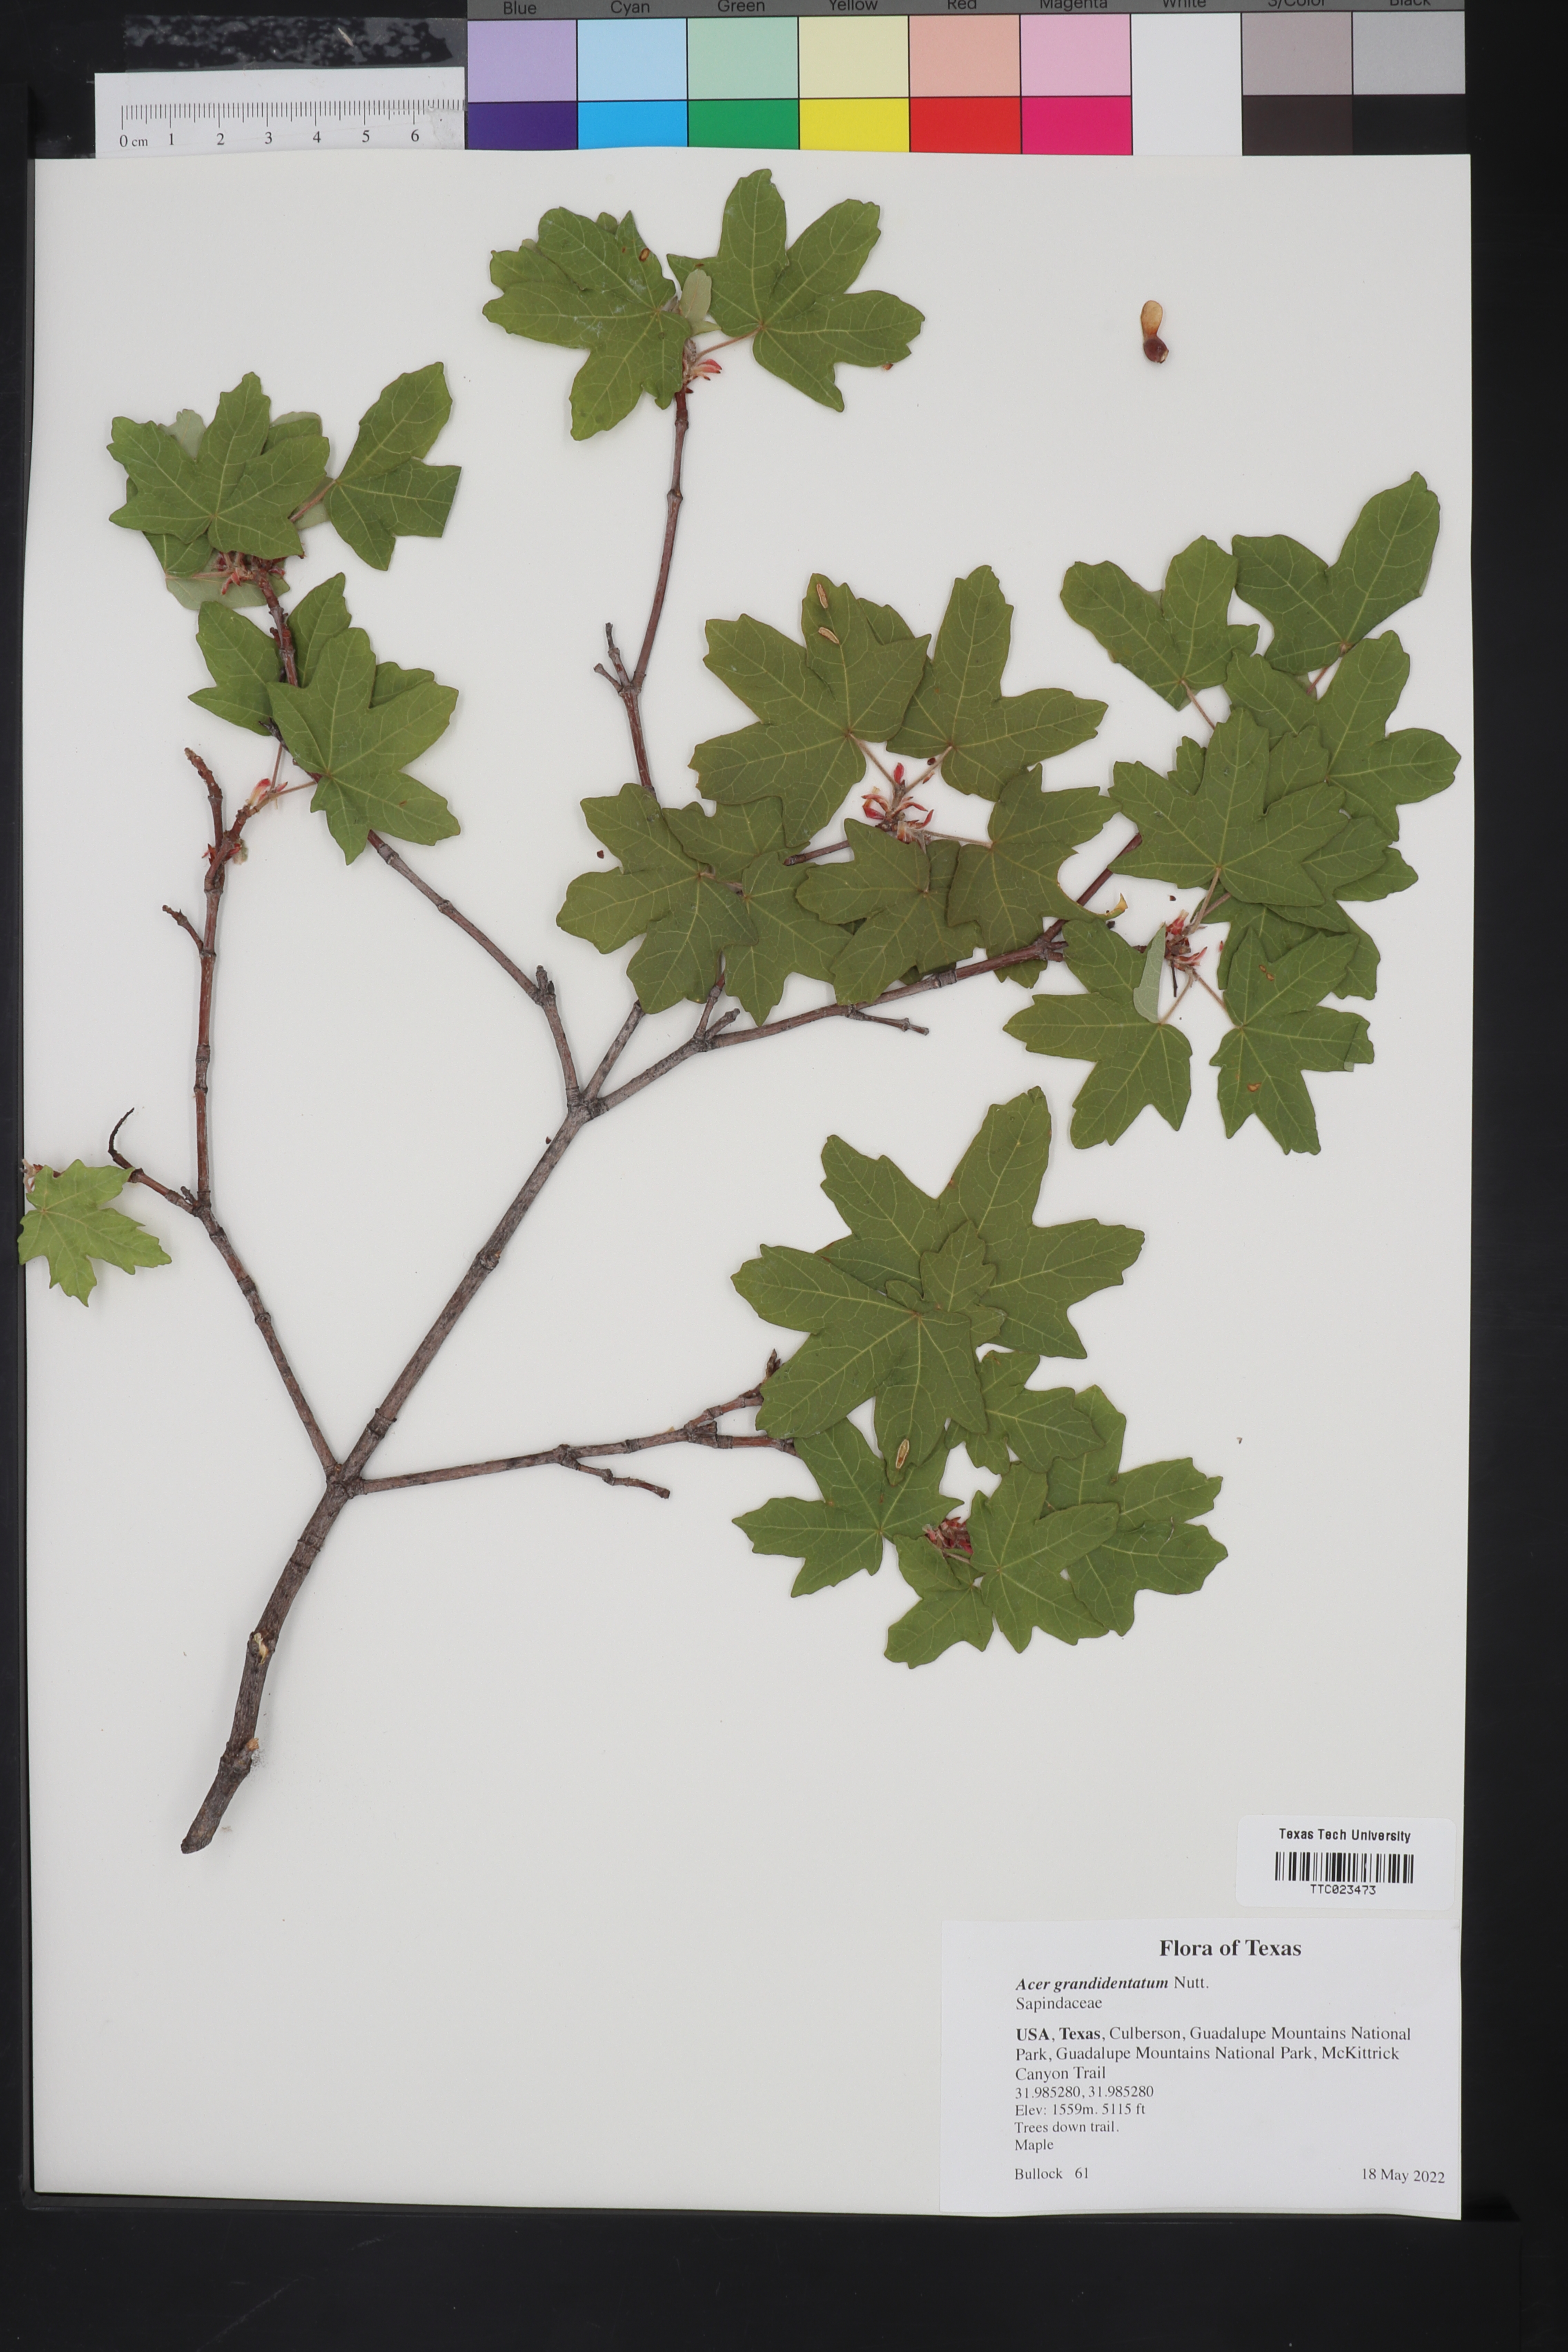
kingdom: Plantae
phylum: Tracheophyta
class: Magnoliopsida
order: Sapindales
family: Sapindaceae
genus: Acer
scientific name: Acer grandidentatum
